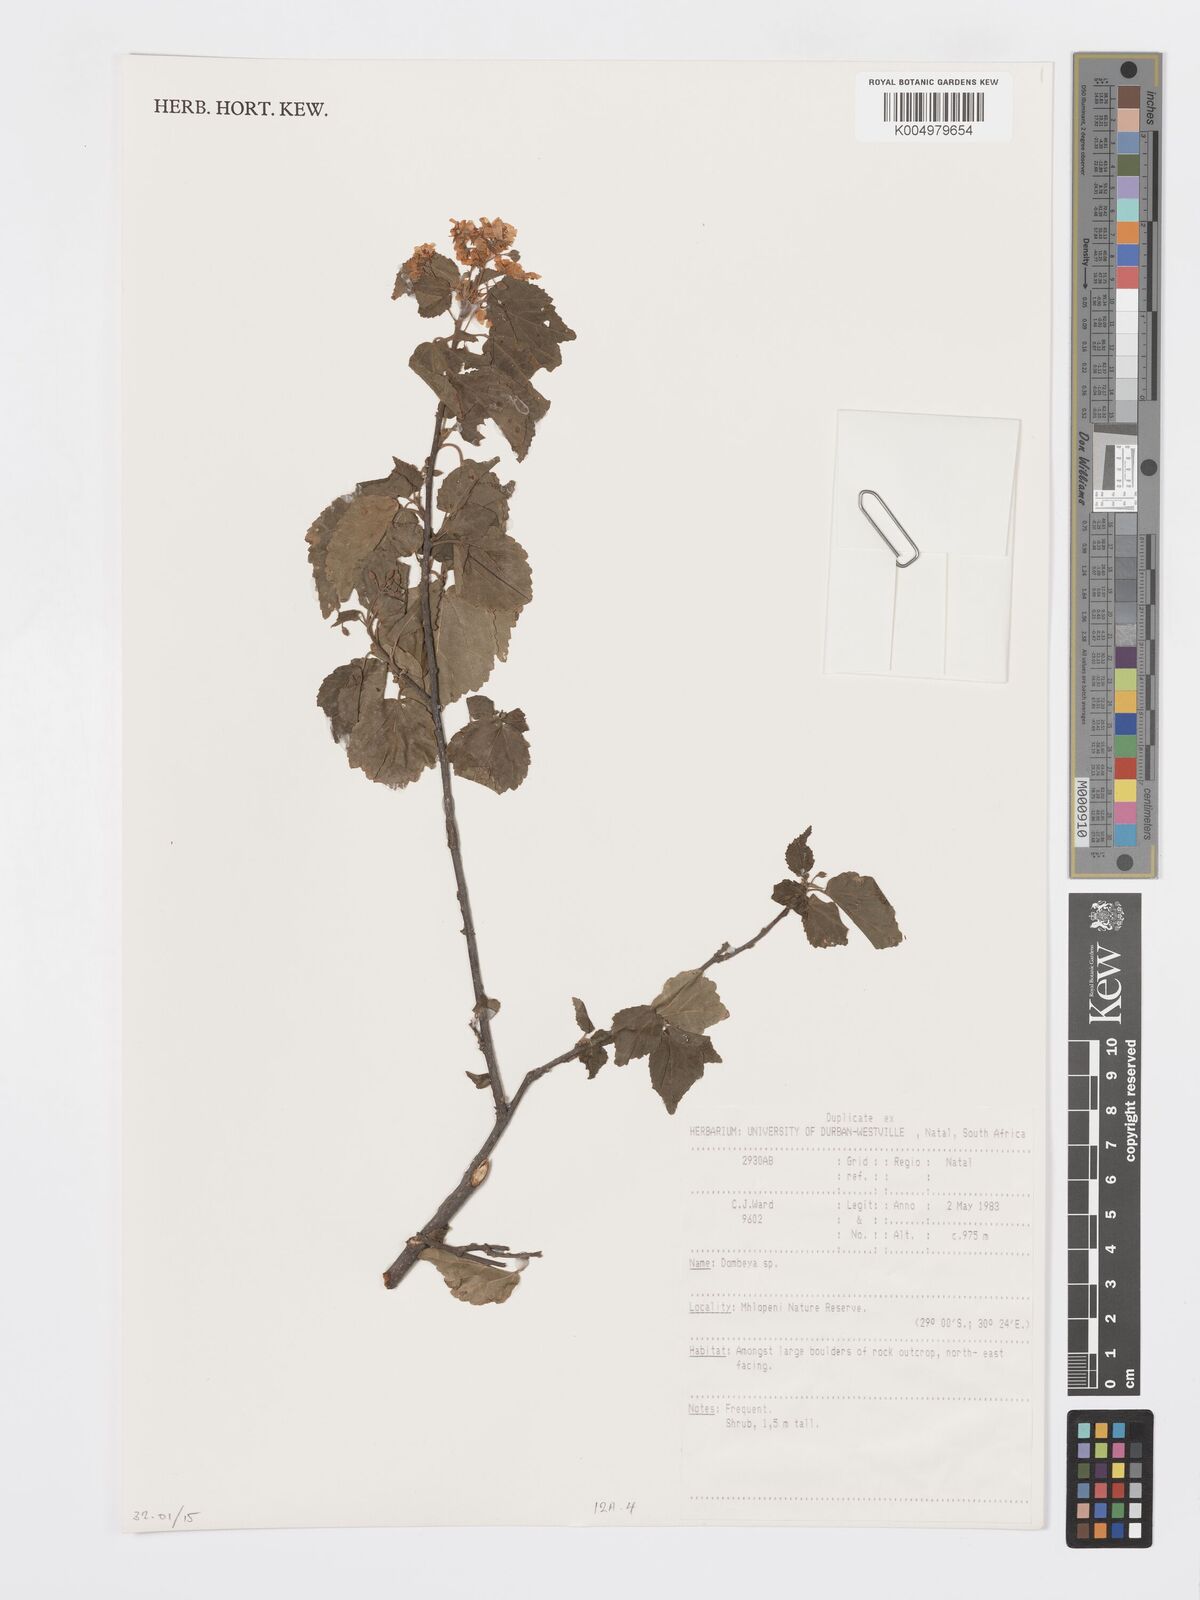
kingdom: Plantae
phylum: Tracheophyta
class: Magnoliopsida
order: Malvales
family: Malvaceae
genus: Dombeya
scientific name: Dombeya
